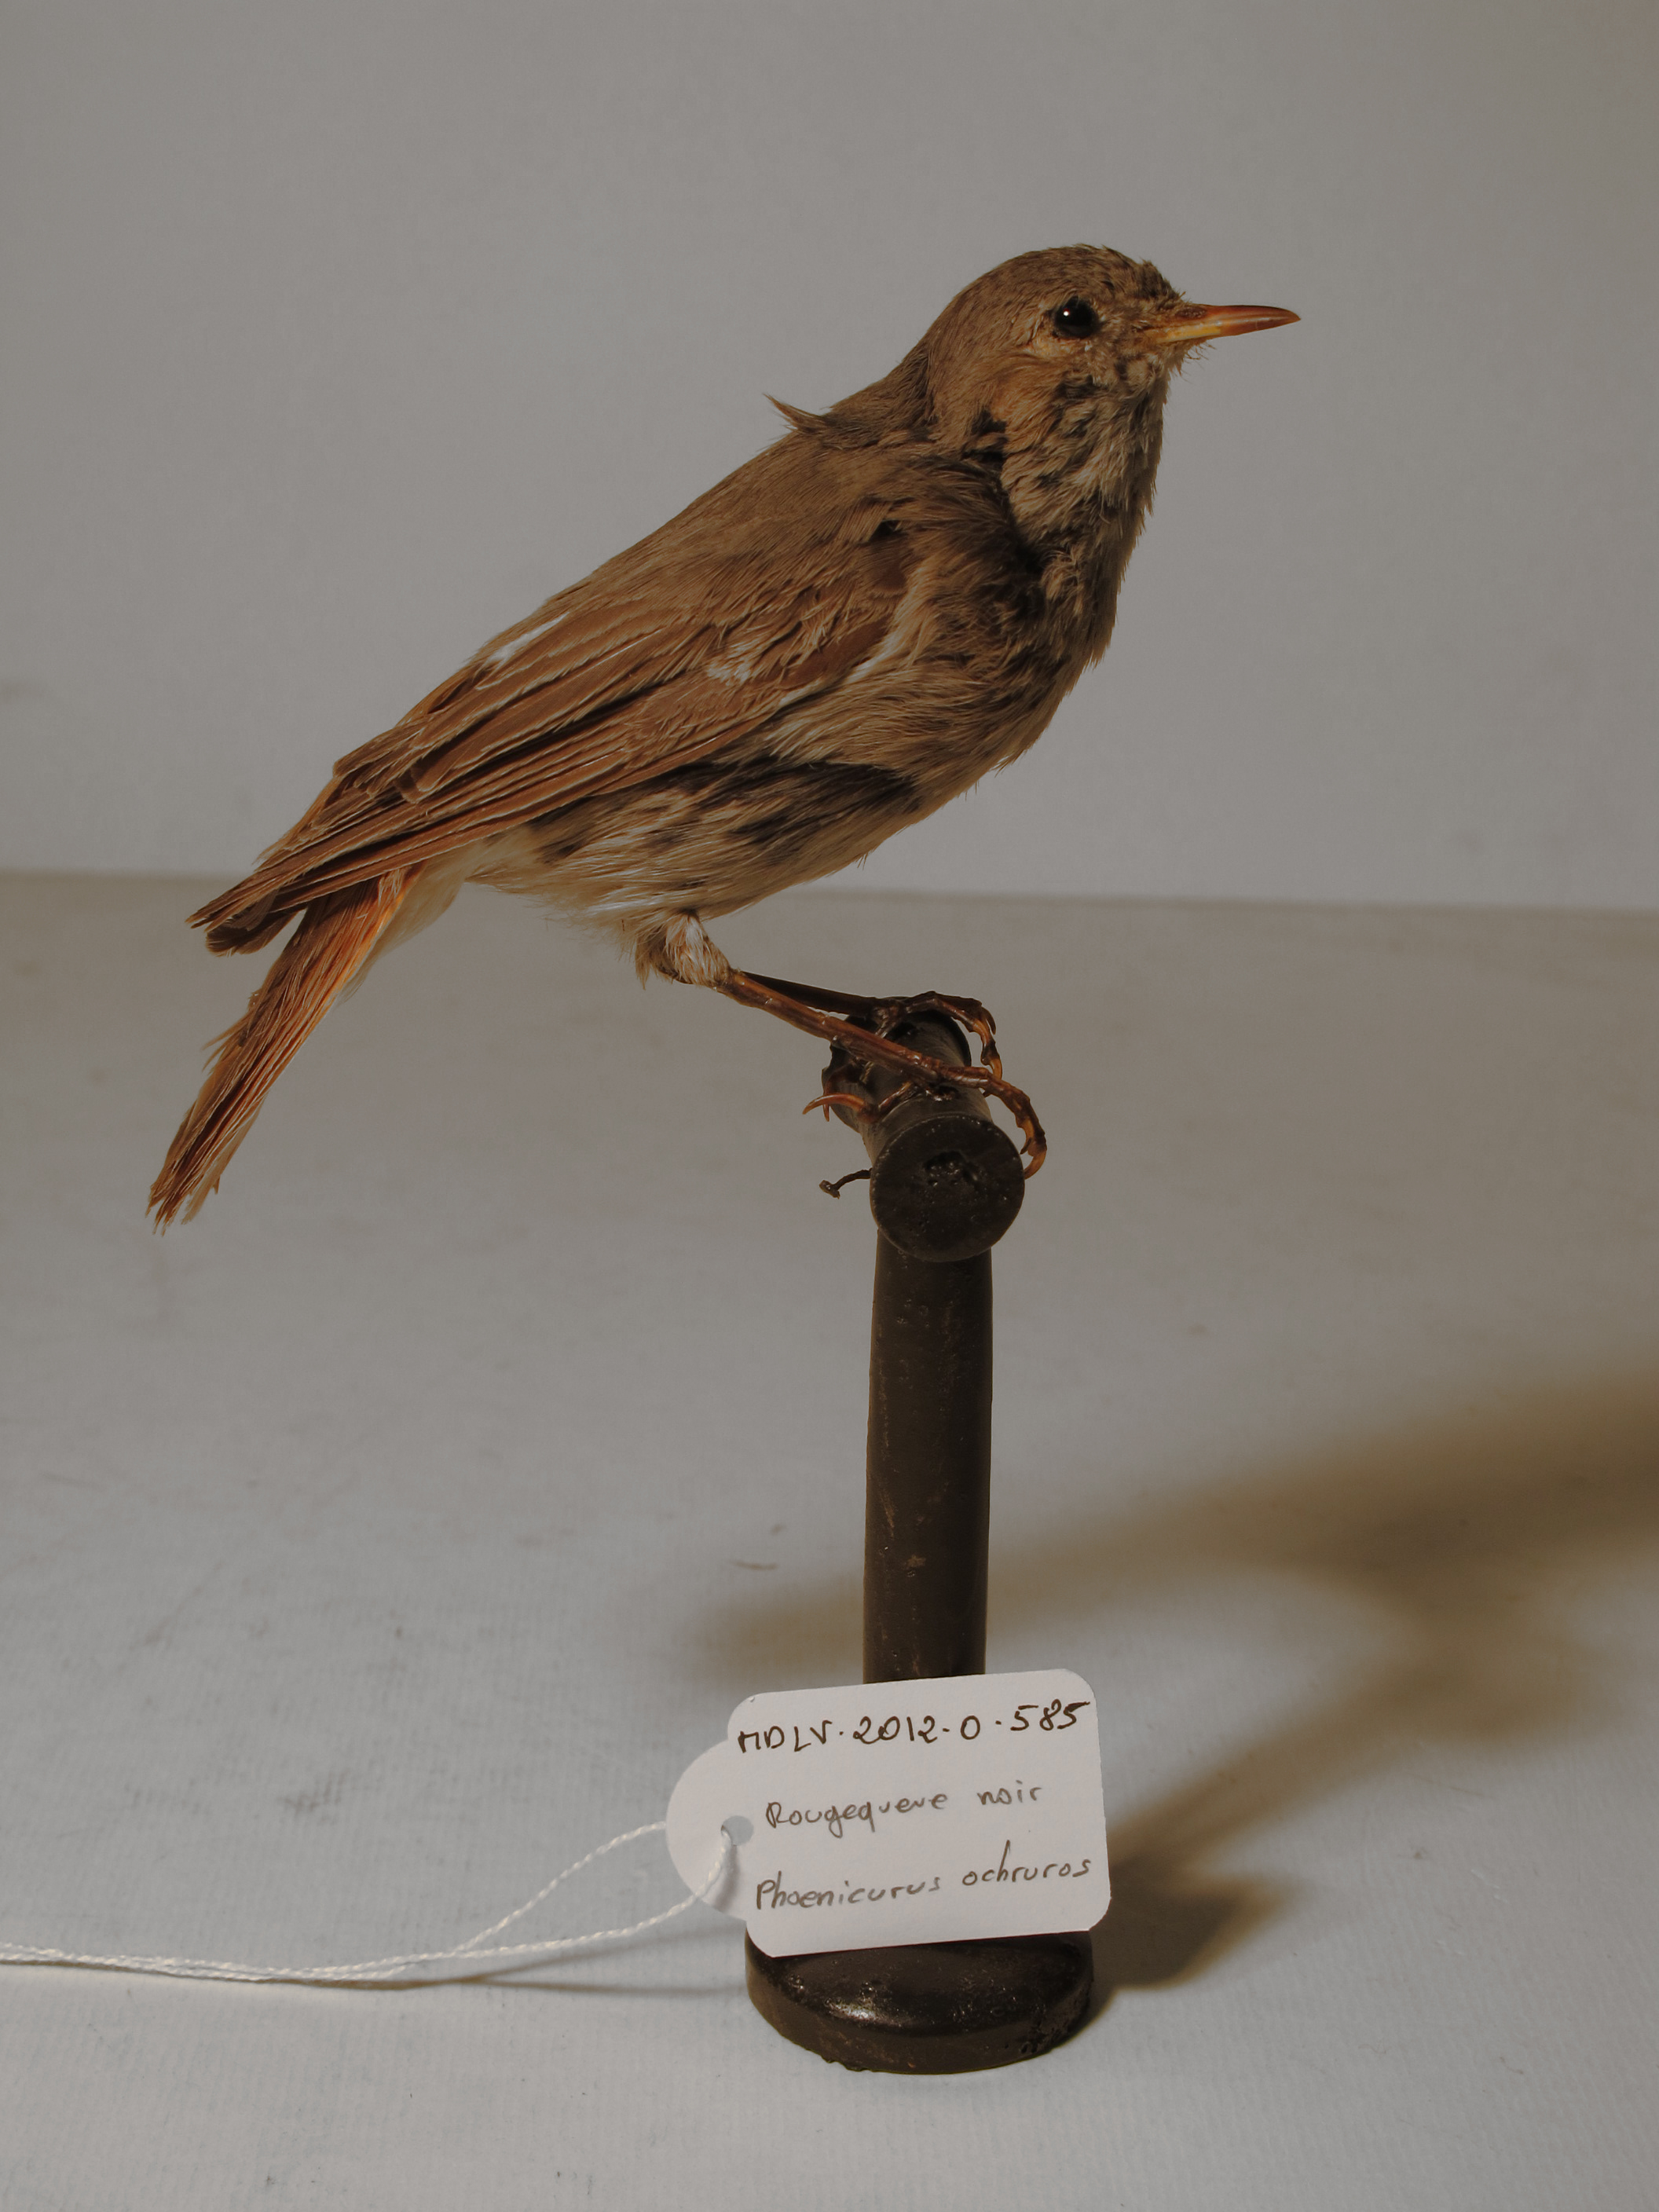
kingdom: Animalia
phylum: Chordata
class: Aves
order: Passeriformes
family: Muscicapidae
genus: Phoenicurus
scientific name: Phoenicurus ochruros
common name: Black Redstart
